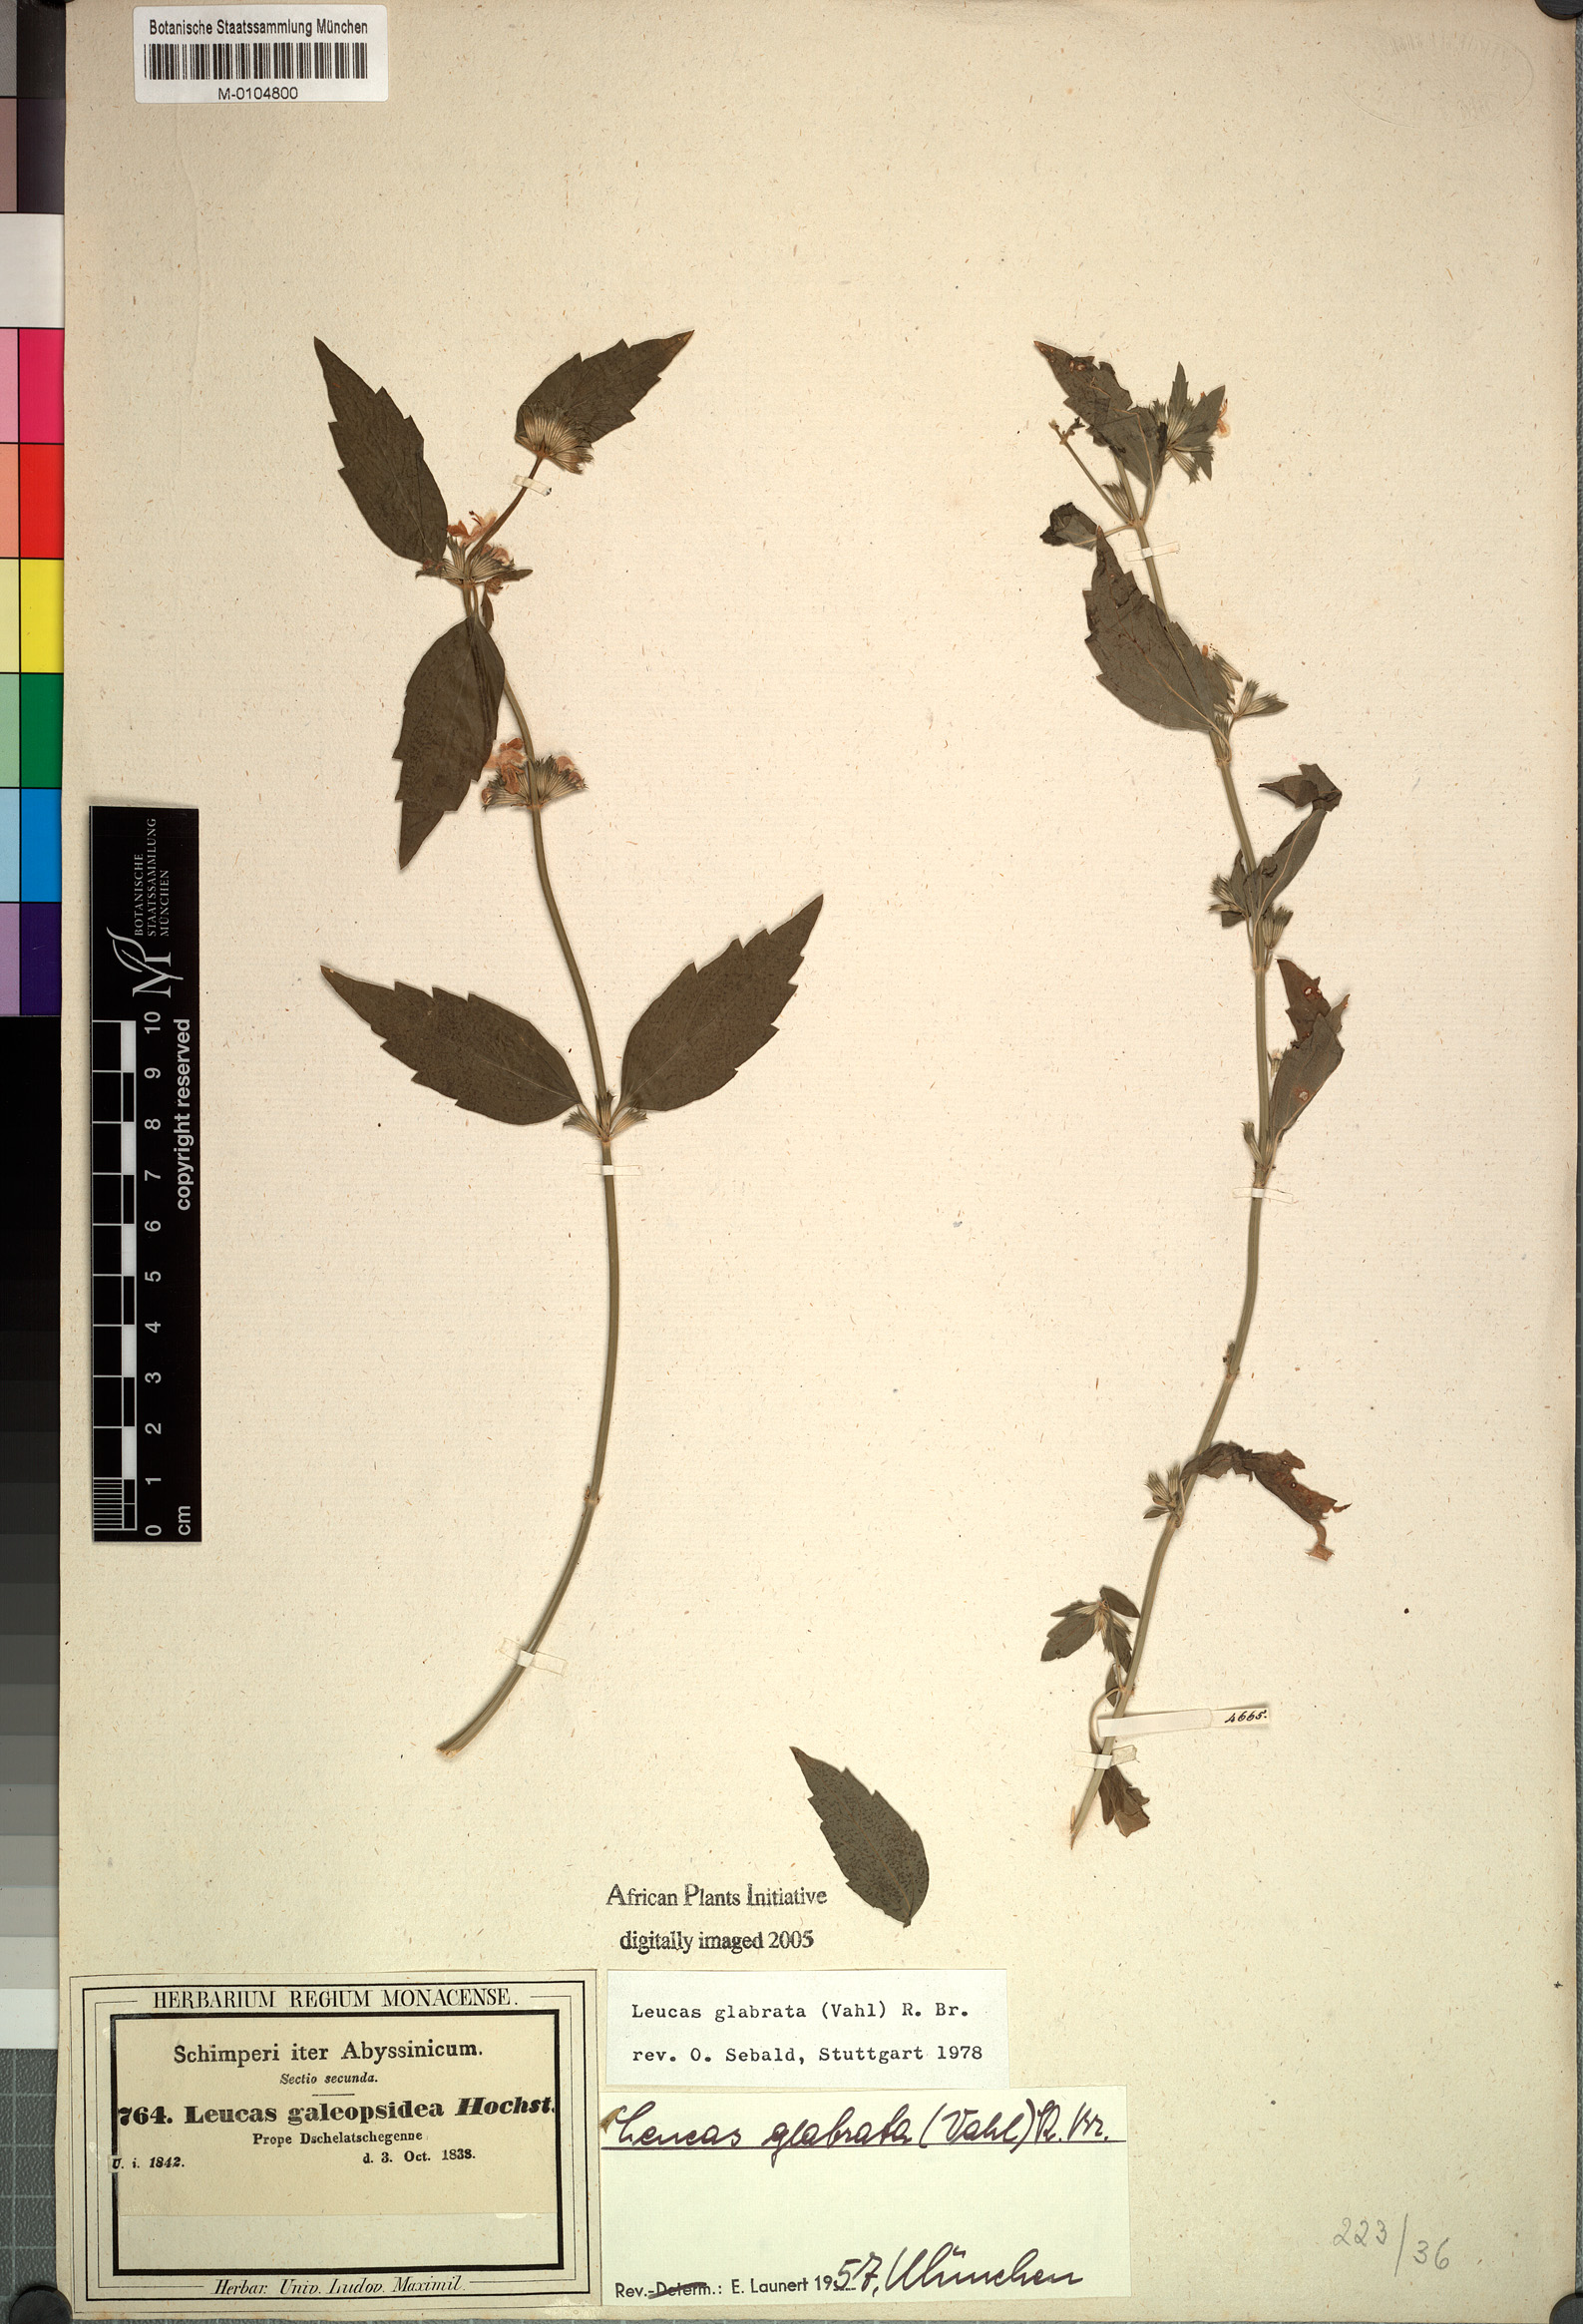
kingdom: Plantae
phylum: Tracheophyta
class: Magnoliopsida
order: Lamiales
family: Lamiaceae
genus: Leucas
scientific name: Leucas glabrata
